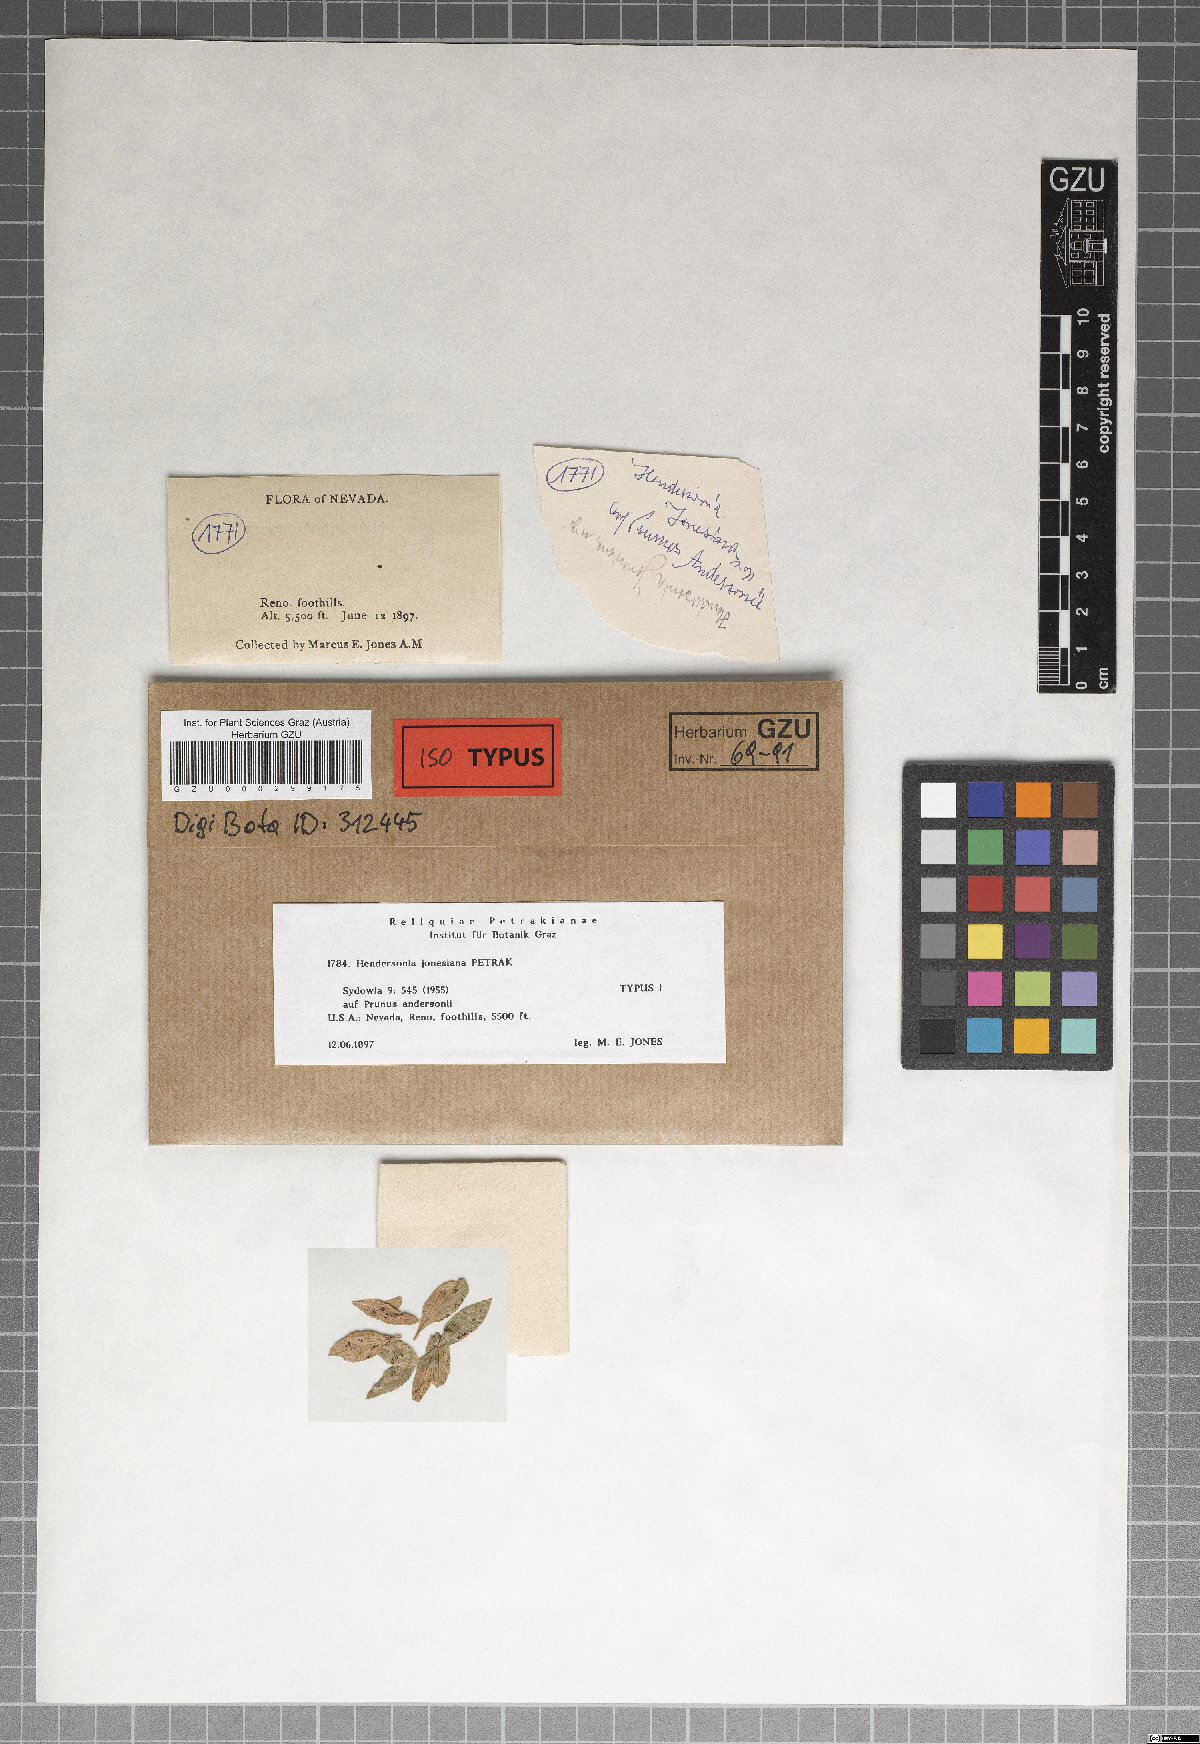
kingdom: Fungi
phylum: Ascomycota
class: Dothideomycetes
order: Pleosporales
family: Phaeosphaeriaceae
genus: Hendersonia
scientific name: Hendersonia jonesiana
